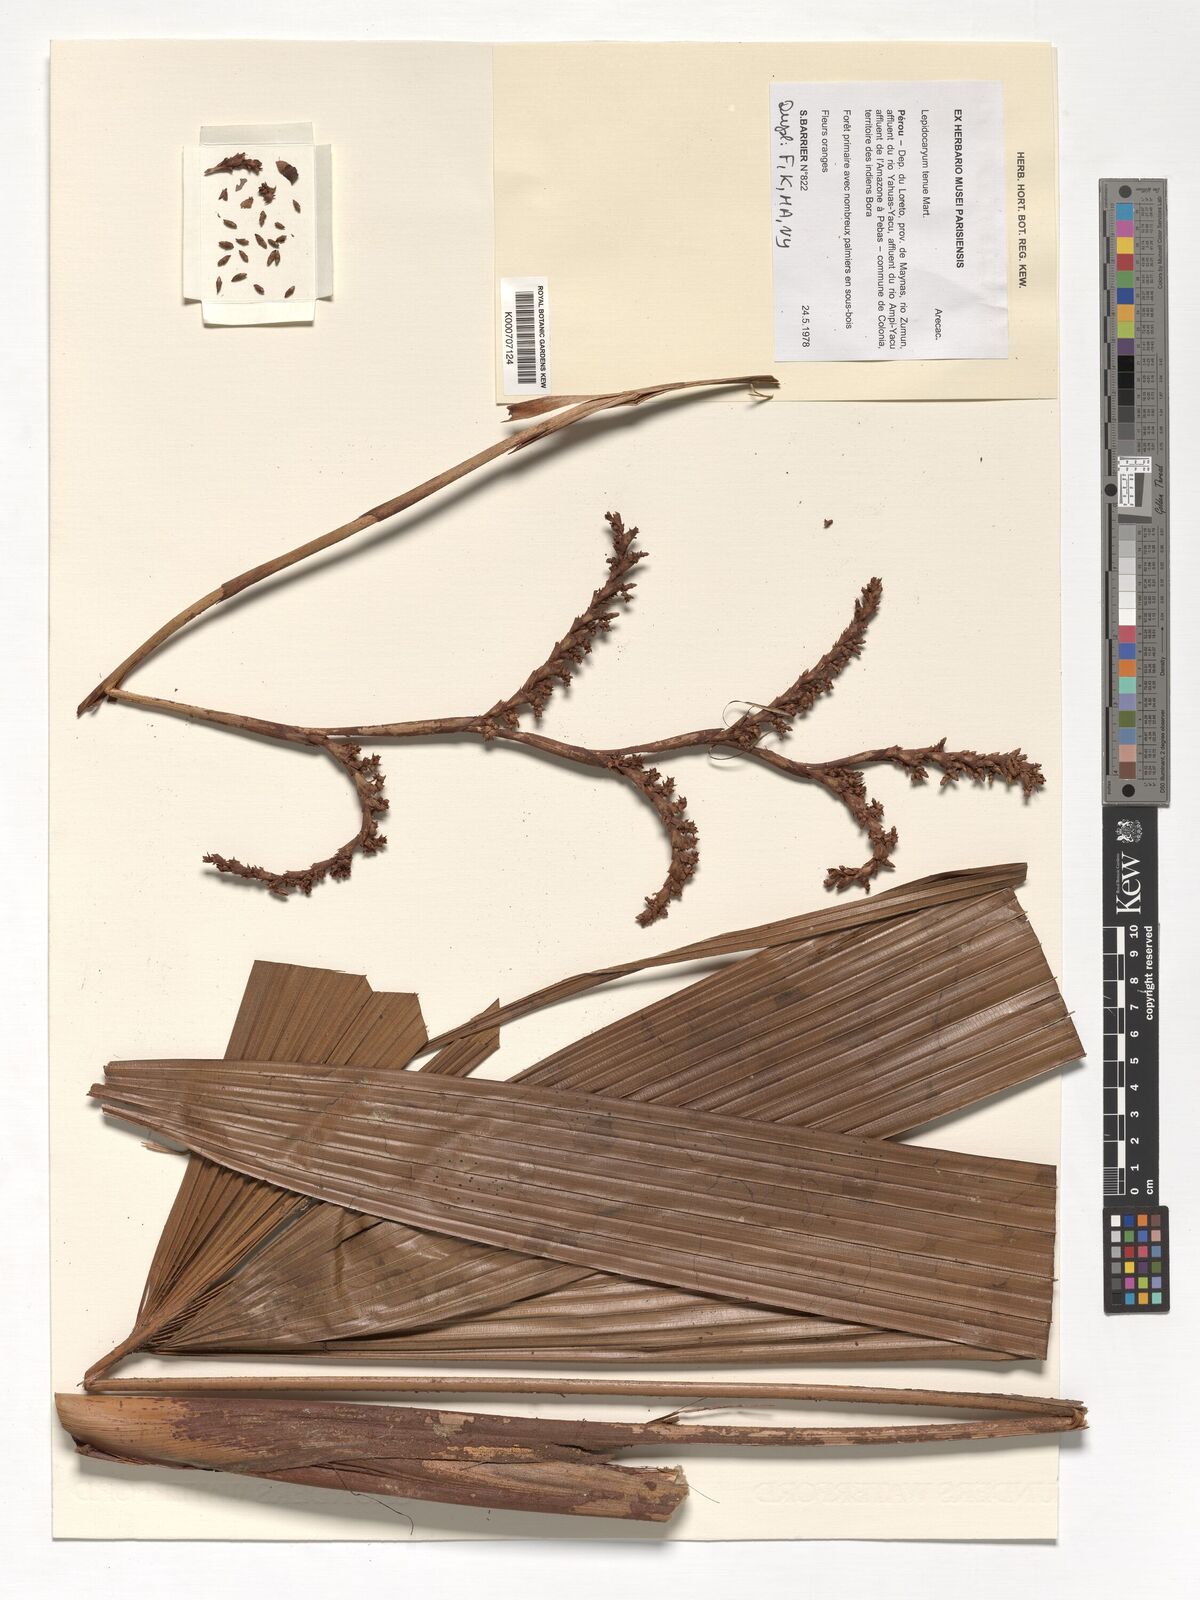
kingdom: Plantae
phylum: Tracheophyta
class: Liliopsida
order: Arecales
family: Arecaceae
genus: Lepidocaryum
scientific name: Lepidocaryum tenue
